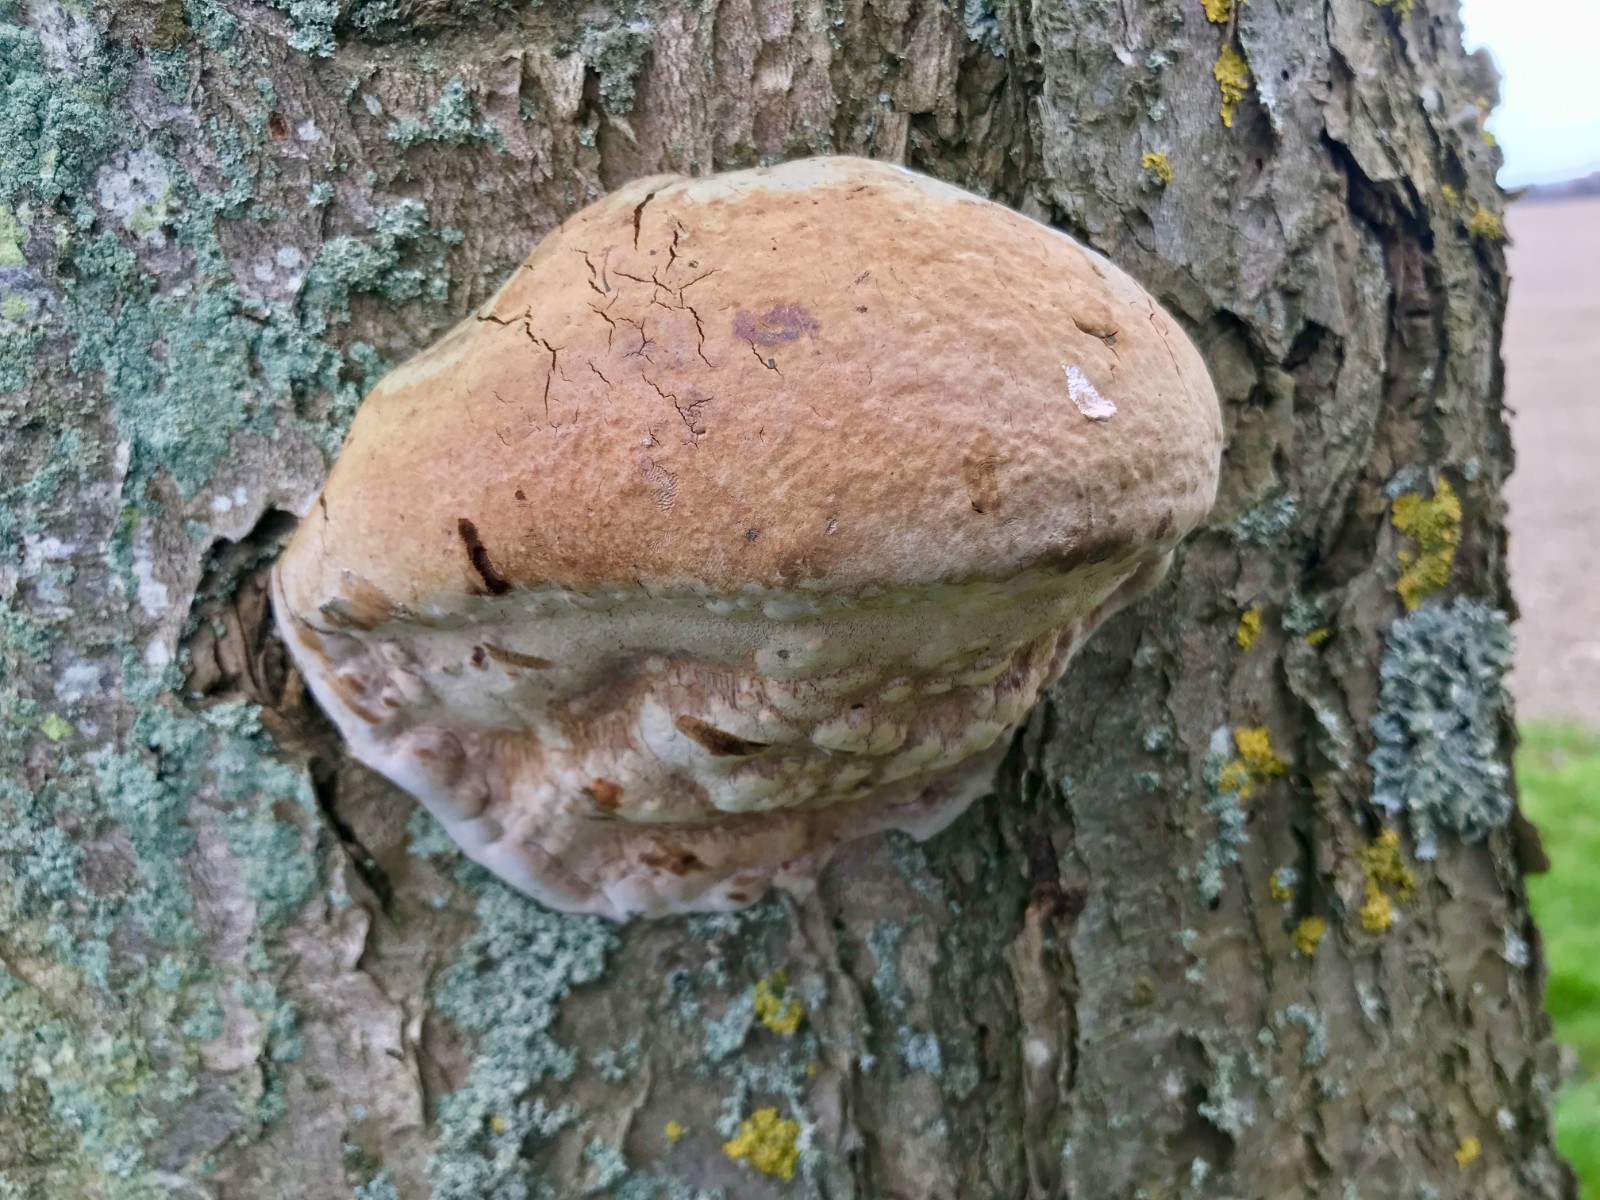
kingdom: Fungi
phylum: Basidiomycota
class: Agaricomycetes
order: Polyporales
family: Polyporaceae
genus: Ganoderma
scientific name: Ganoderma adspersum
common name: grov lakporesvamp
